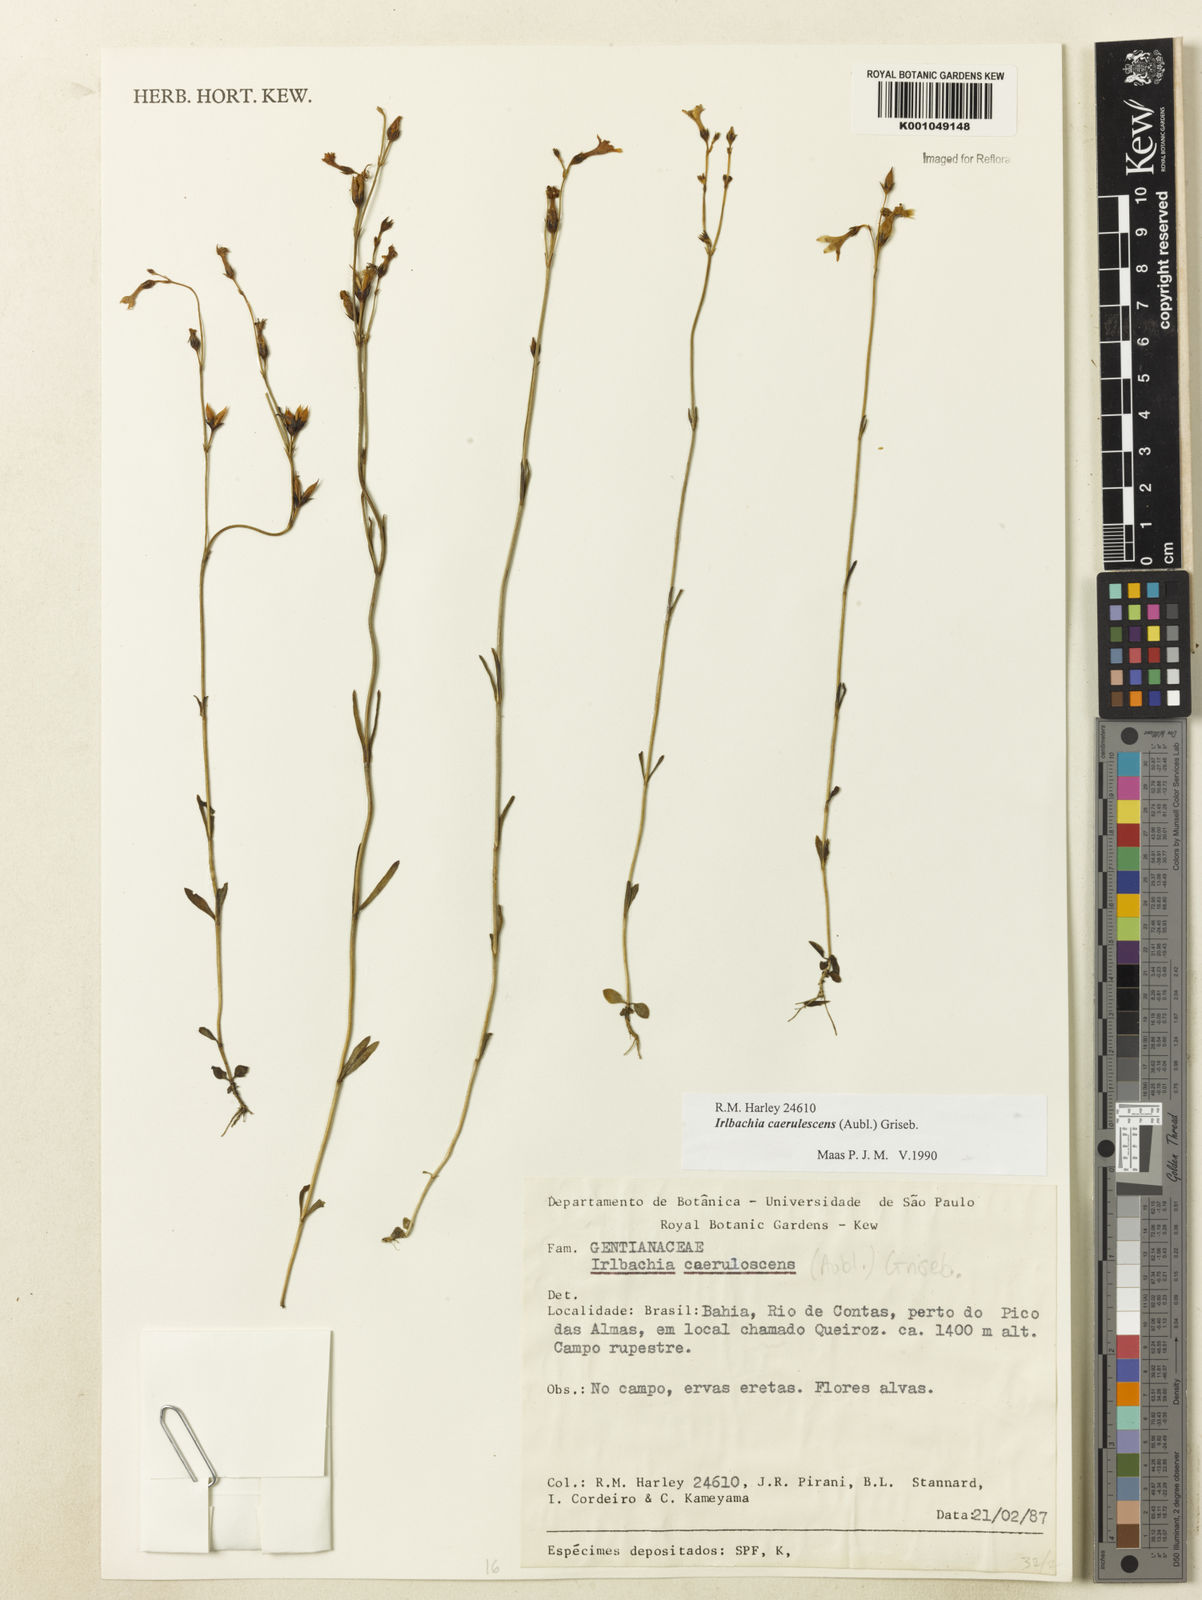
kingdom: Plantae
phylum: Tracheophyta
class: Magnoliopsida
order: Gentianales
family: Gentianaceae
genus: Tetrapollinia
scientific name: Tetrapollinia caerulescens
